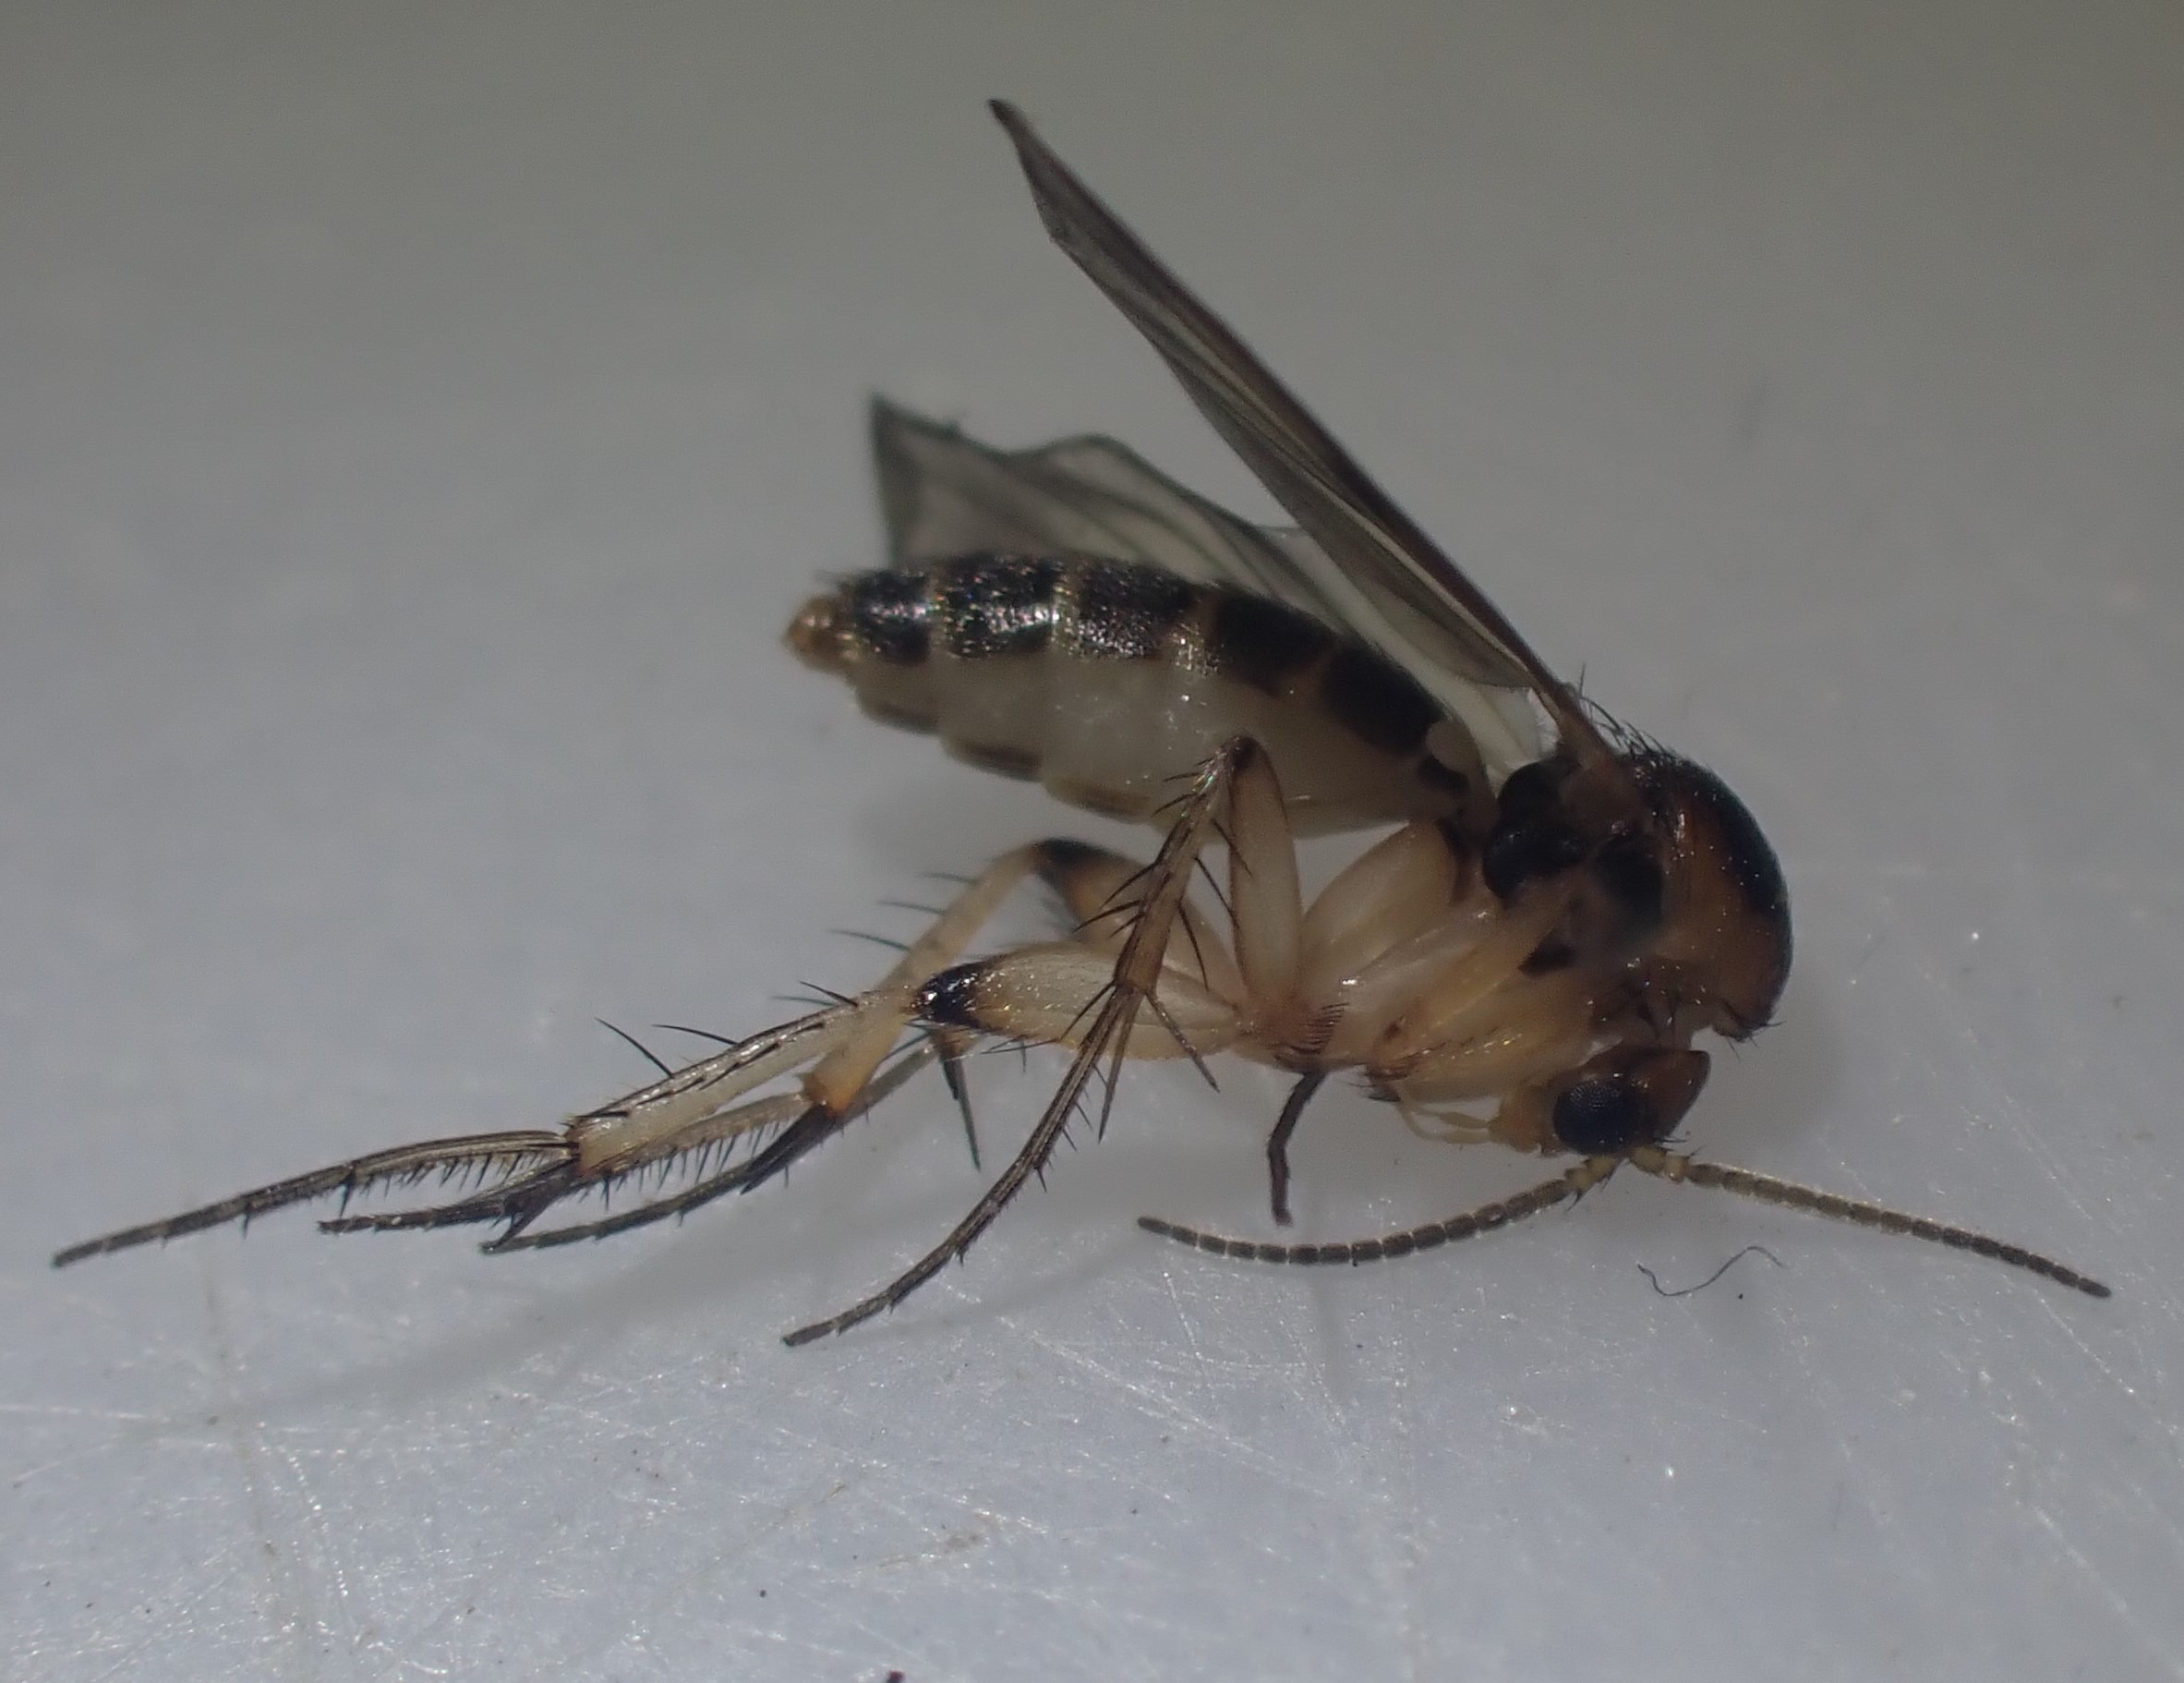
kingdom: Animalia
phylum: Arthropoda
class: Insecta
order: Diptera
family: Mycetophilidae
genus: Mycetophila
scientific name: Mycetophila
